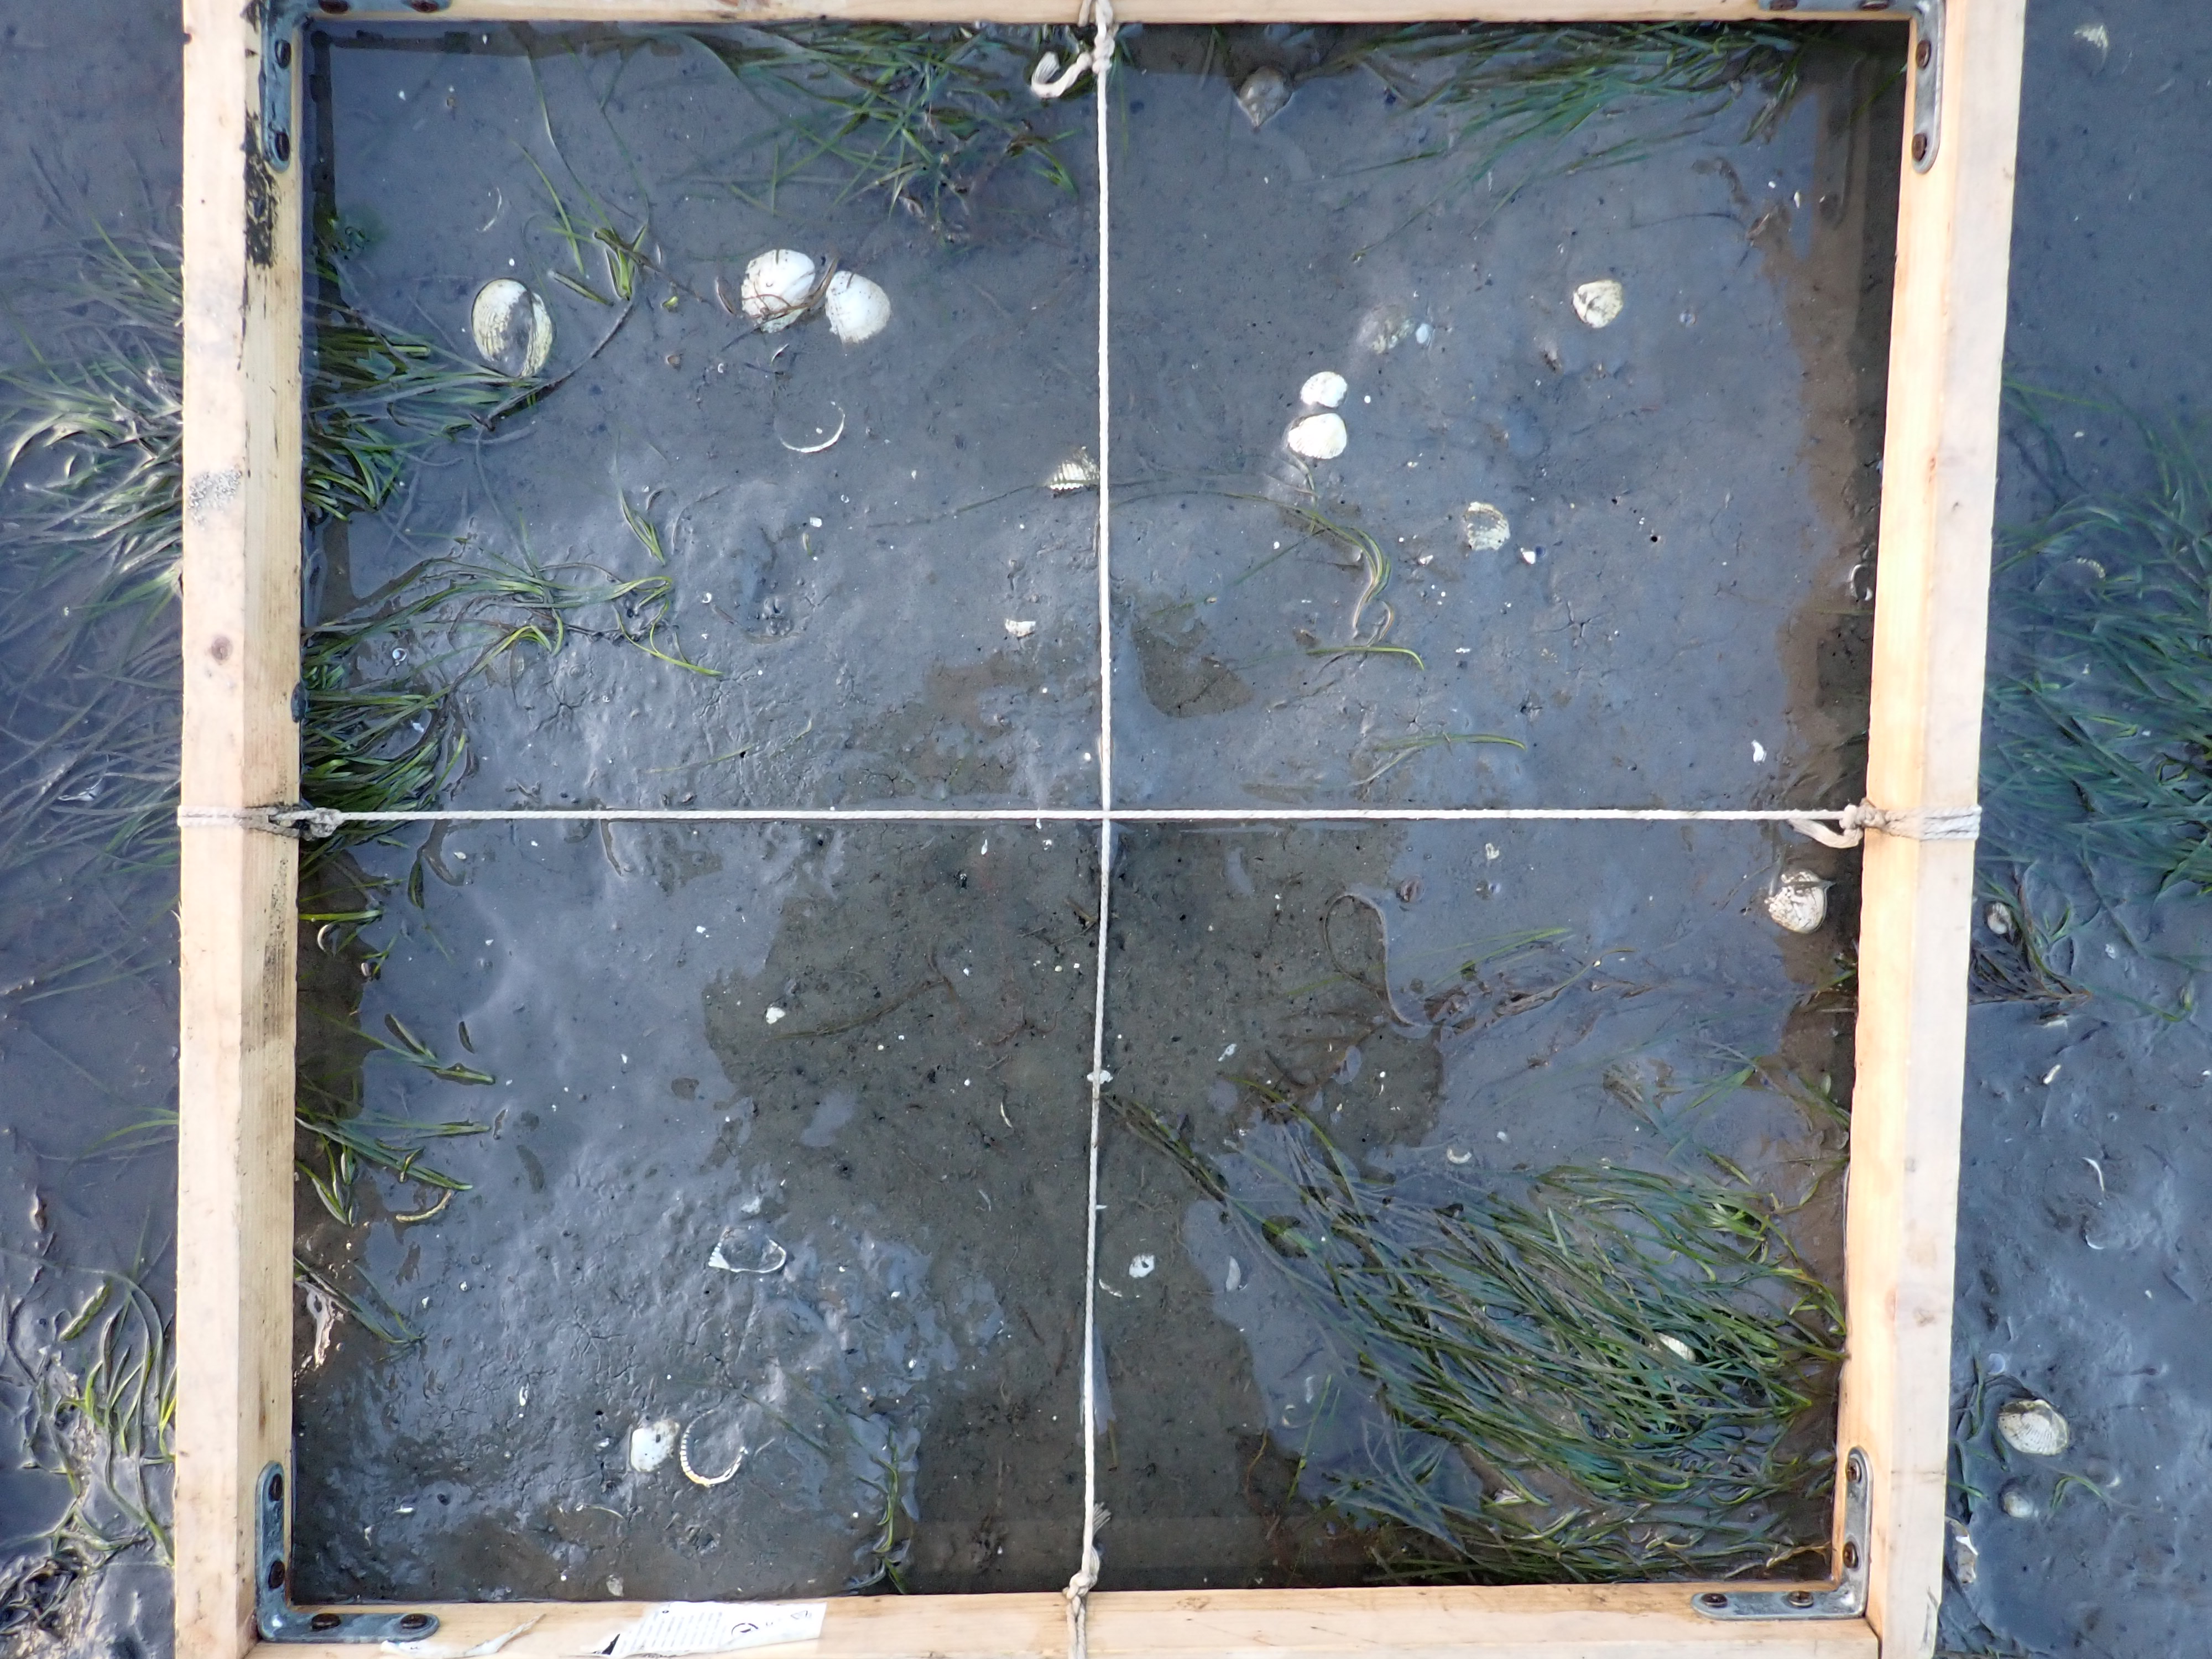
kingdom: Plantae
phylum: Tracheophyta
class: Liliopsida
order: Alismatales
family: Zosteraceae
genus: Zostera
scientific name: Zostera noltii
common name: Dwarf eelgrass
